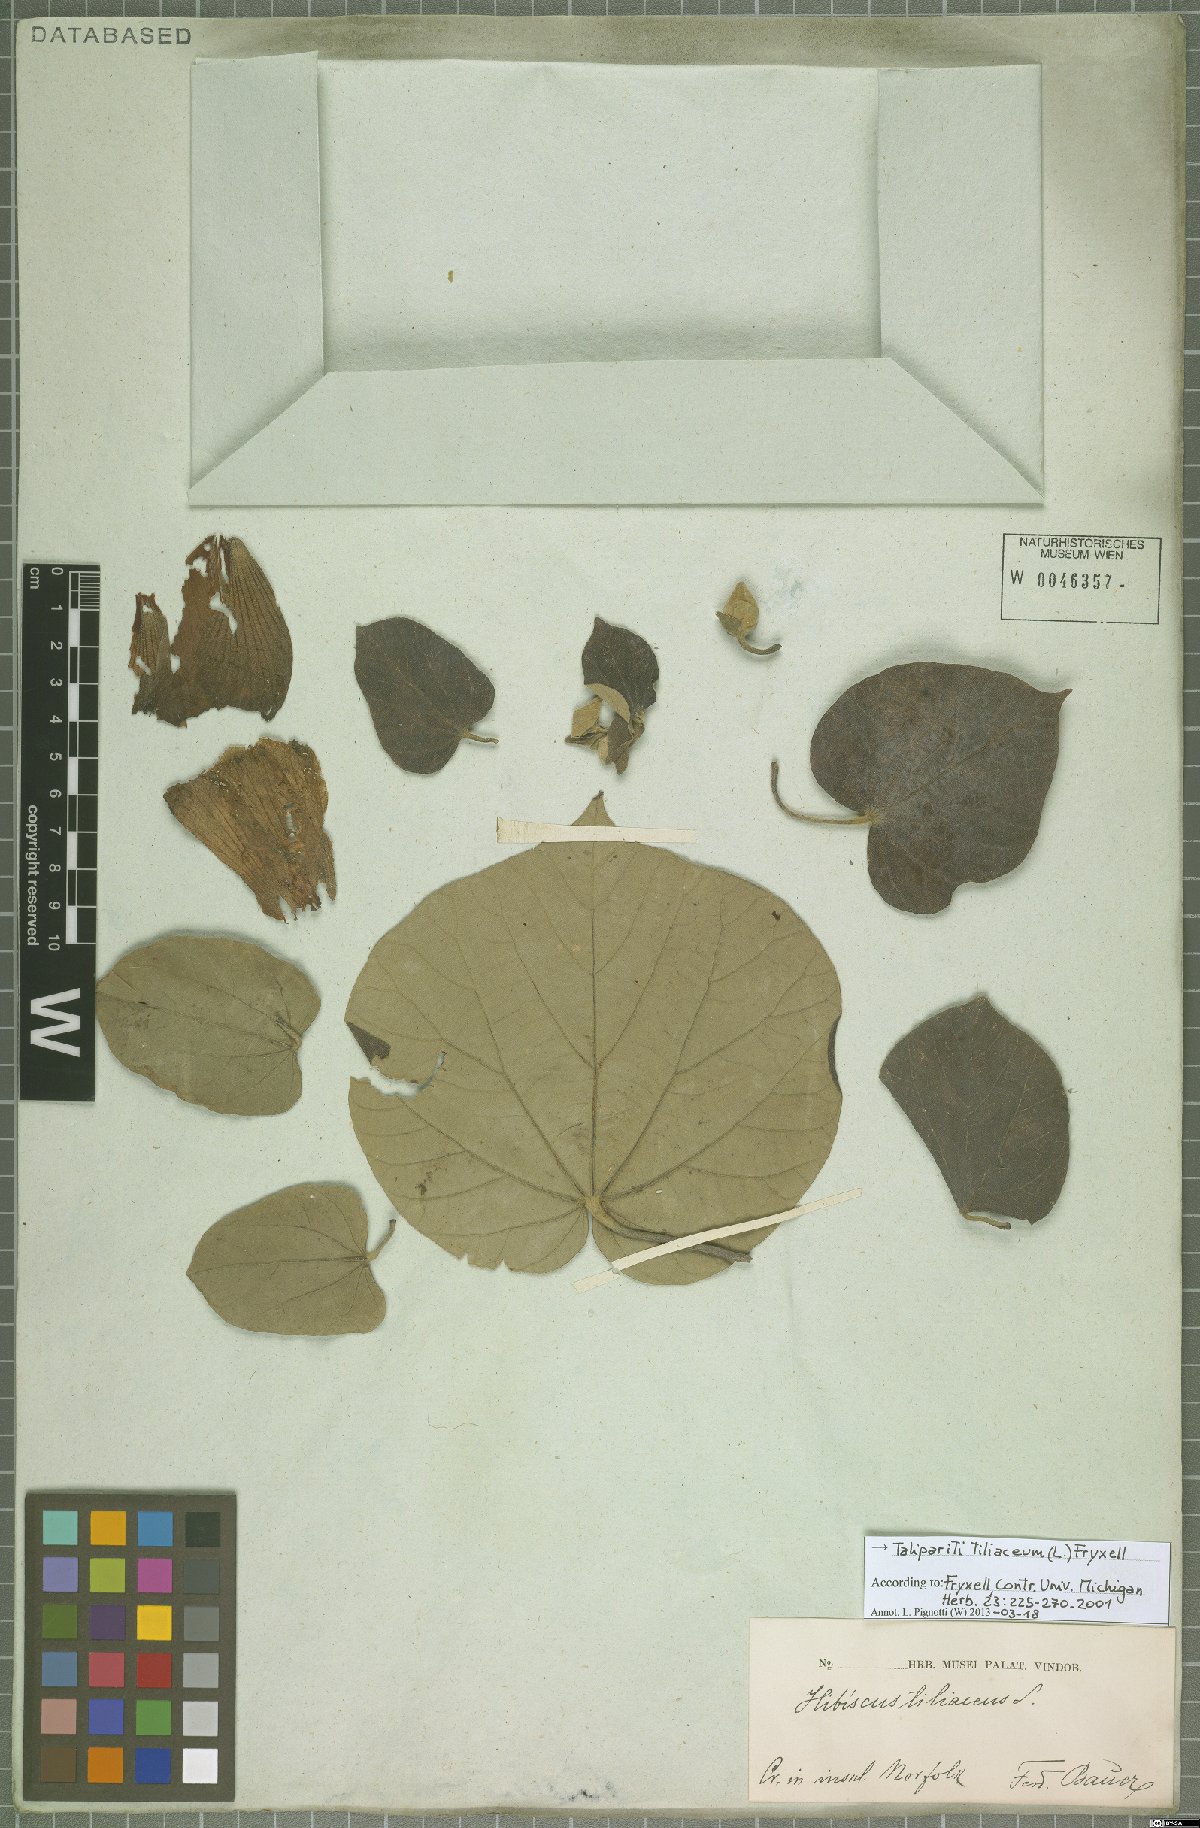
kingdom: Plantae
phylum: Tracheophyta
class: Magnoliopsida
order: Malvales
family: Malvaceae
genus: Talipariti
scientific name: Talipariti tiliaceum
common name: Sea hibiscus
